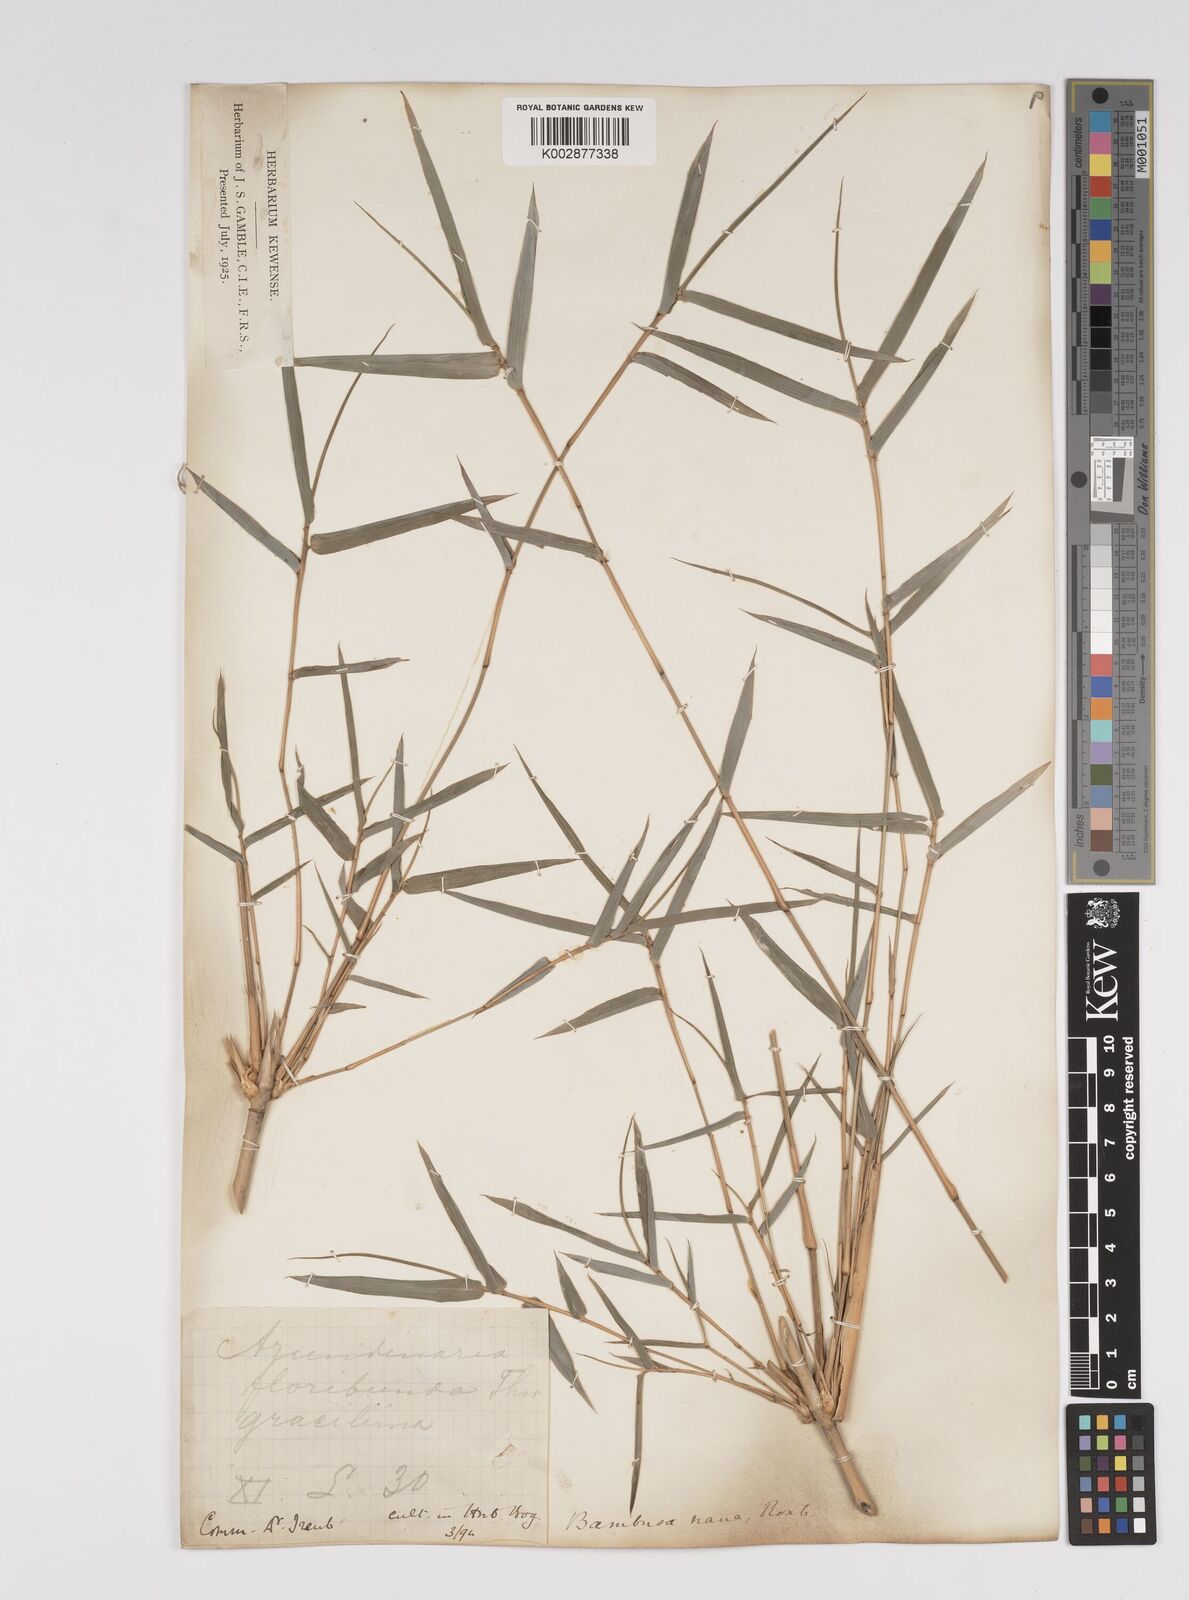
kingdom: Plantae
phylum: Tracheophyta
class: Liliopsida
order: Poales
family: Poaceae
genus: Bambusa
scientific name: Bambusa multiplex
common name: Hedge bamboo
